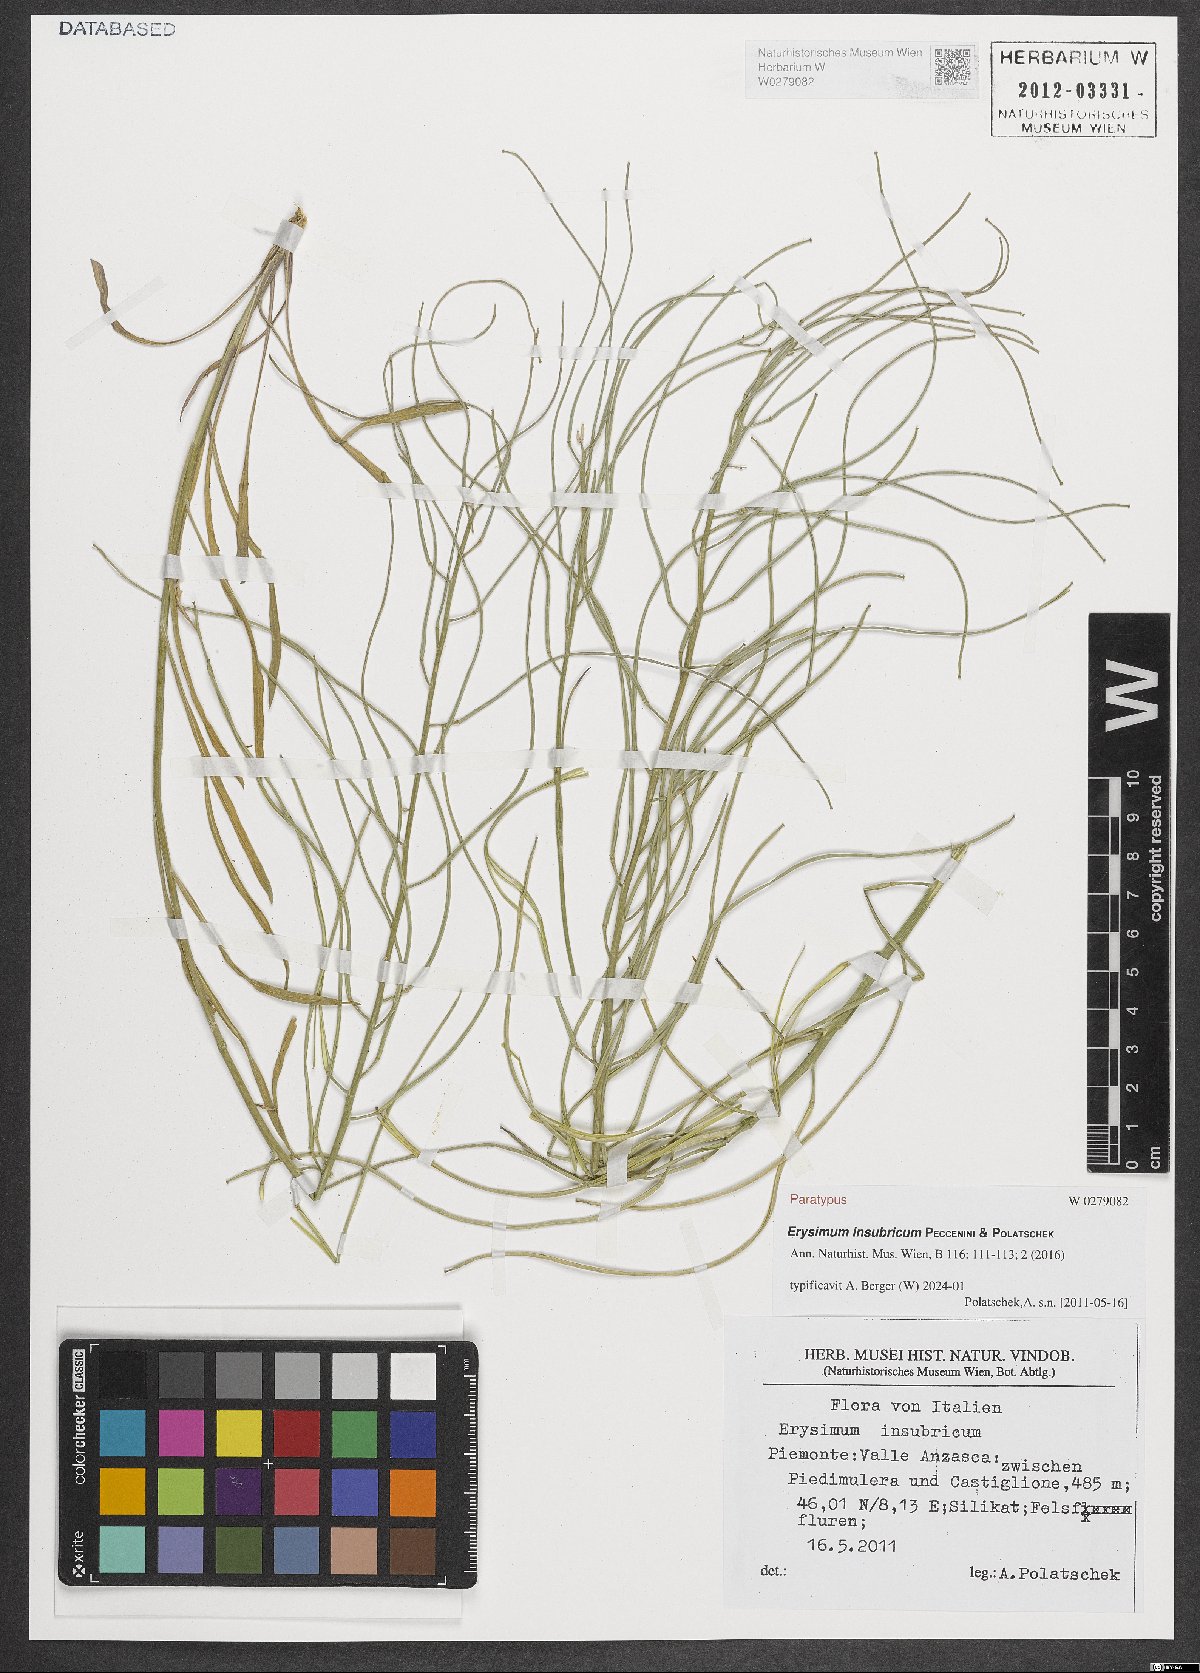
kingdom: Plantae
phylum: Tracheophyta
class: Magnoliopsida
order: Brassicales
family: Brassicaceae
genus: Erysimum
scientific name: Erysimum insubricum
